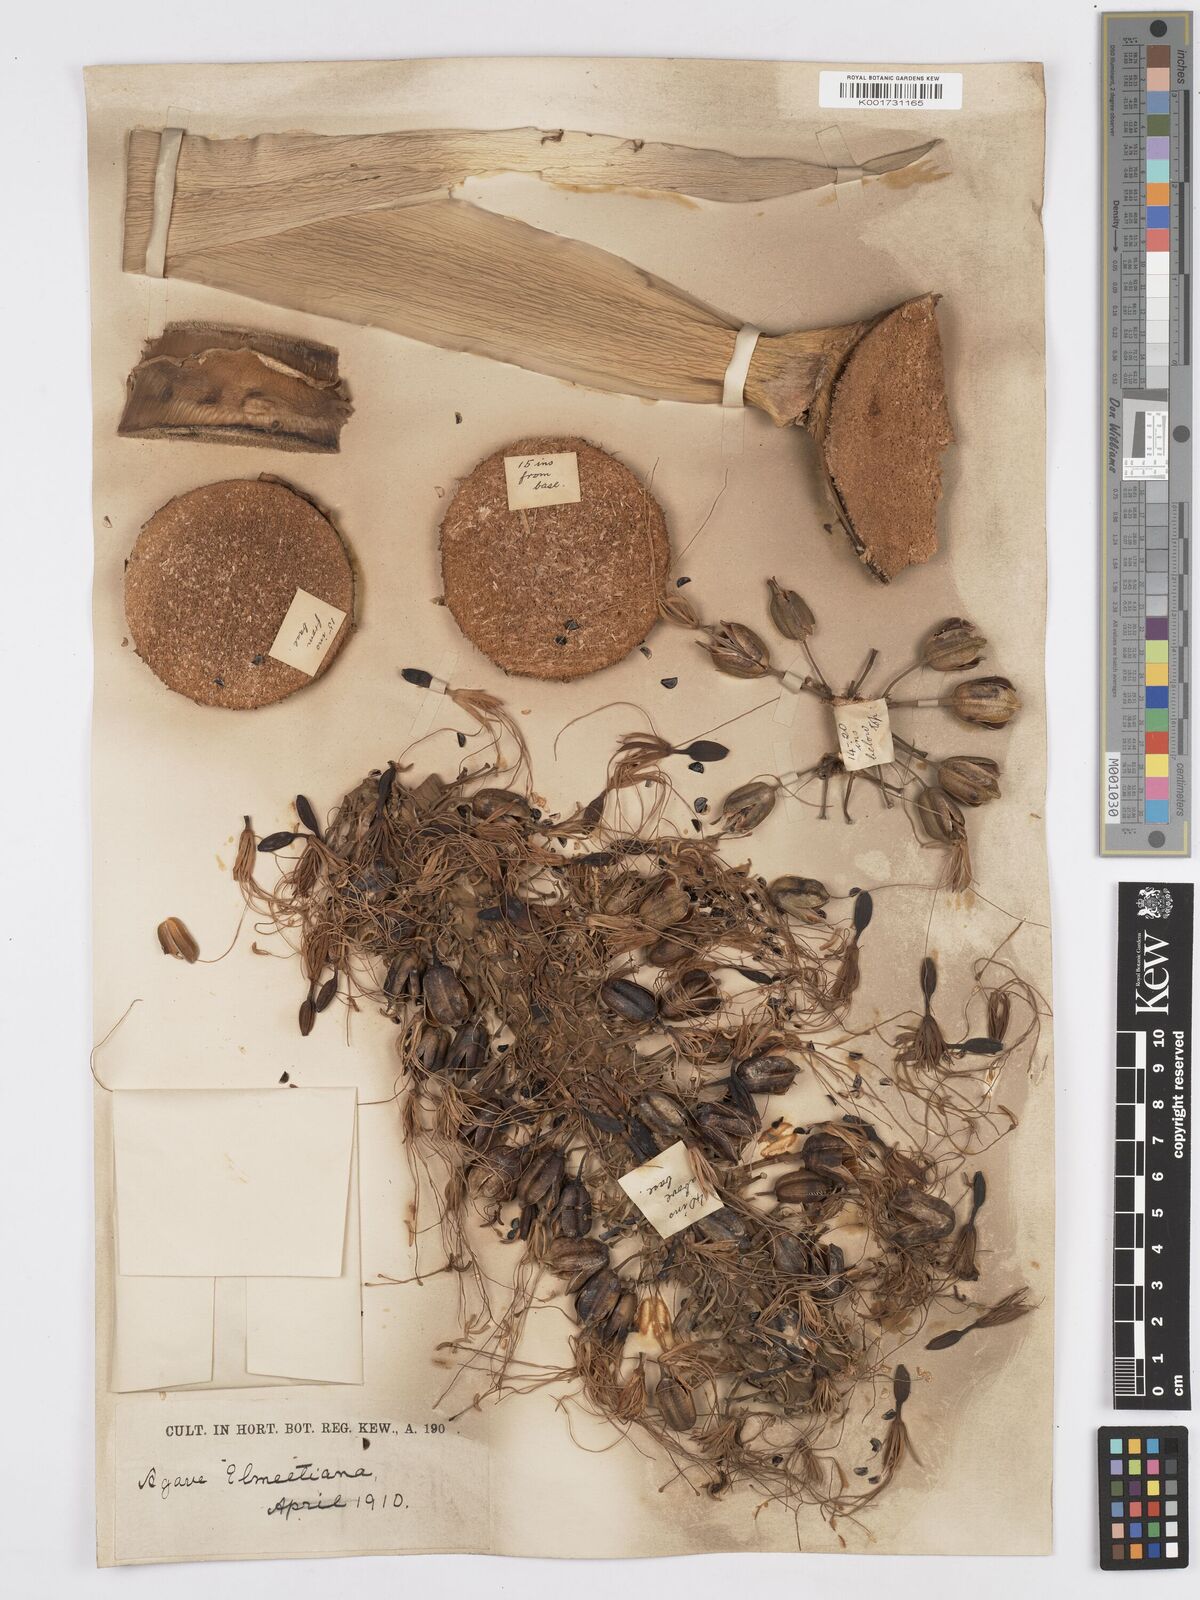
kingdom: Plantae
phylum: Tracheophyta
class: Liliopsida
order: Asparagales
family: Asparagaceae
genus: Agave
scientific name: Agave ellemeetiana
